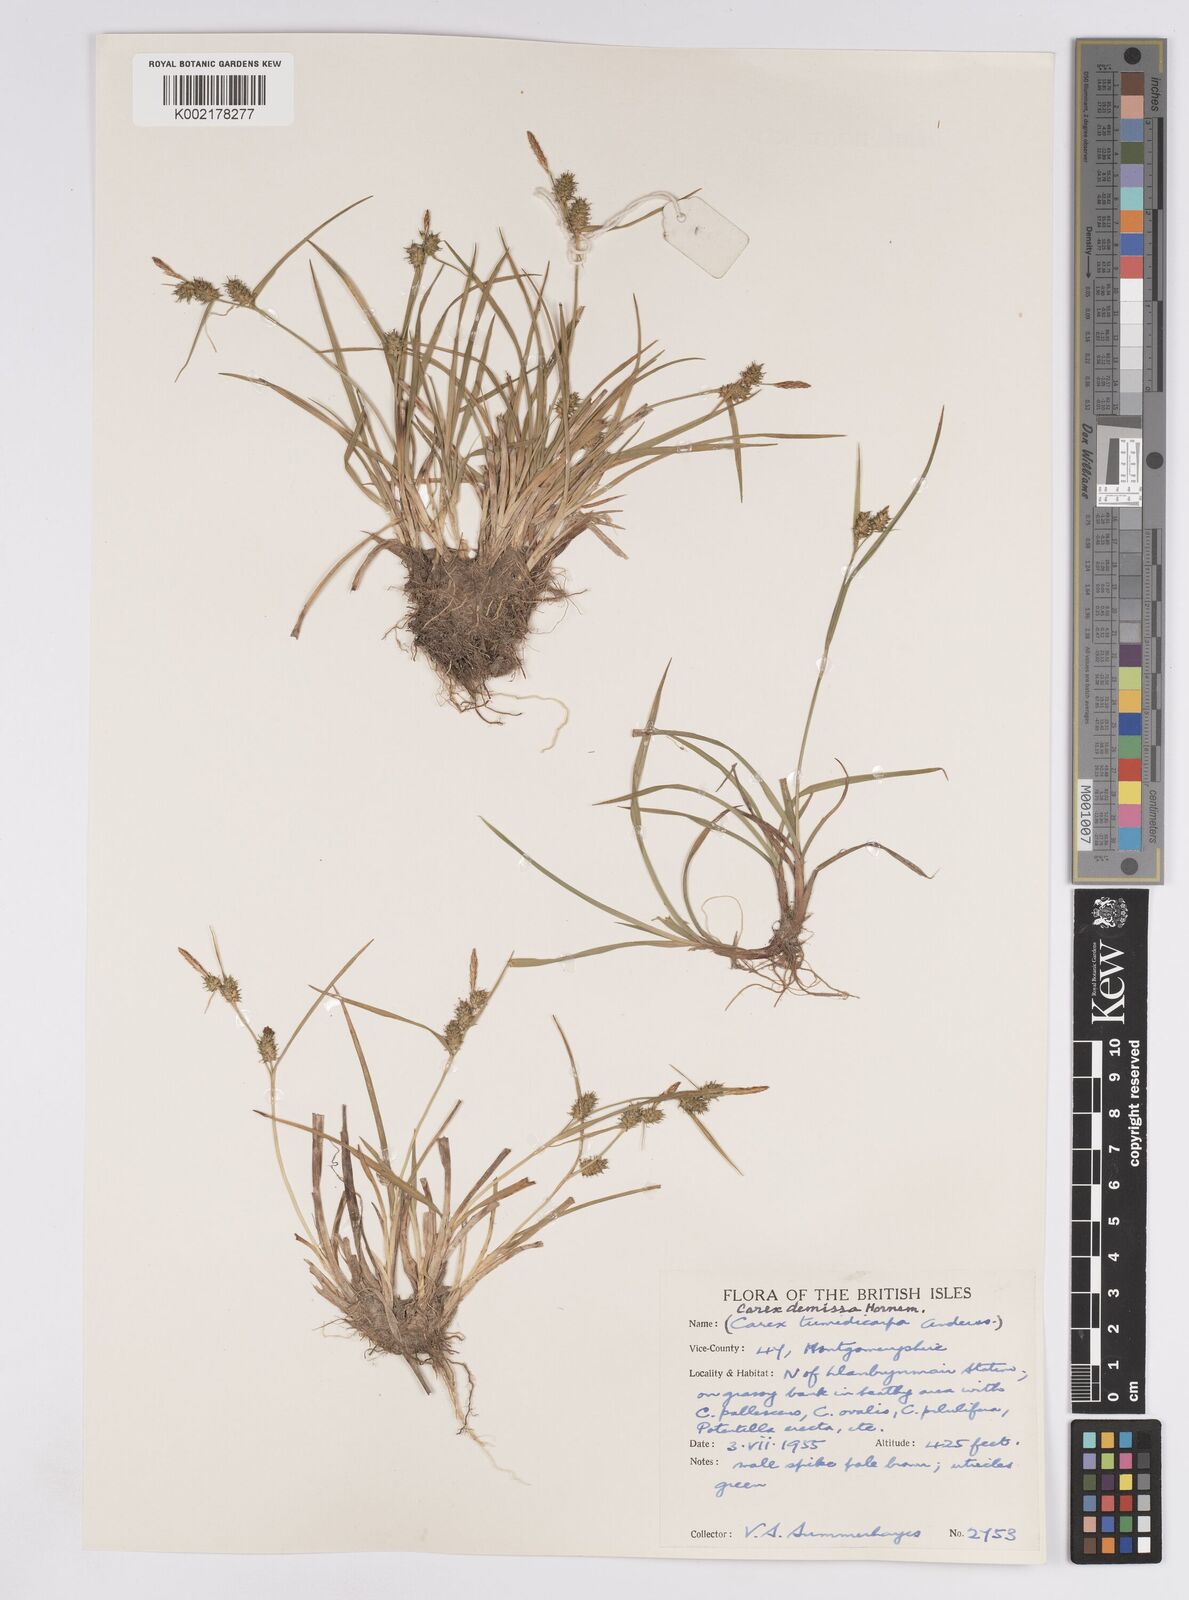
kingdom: Plantae
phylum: Tracheophyta
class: Liliopsida
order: Poales
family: Cyperaceae
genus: Carex
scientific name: Carex demissa
